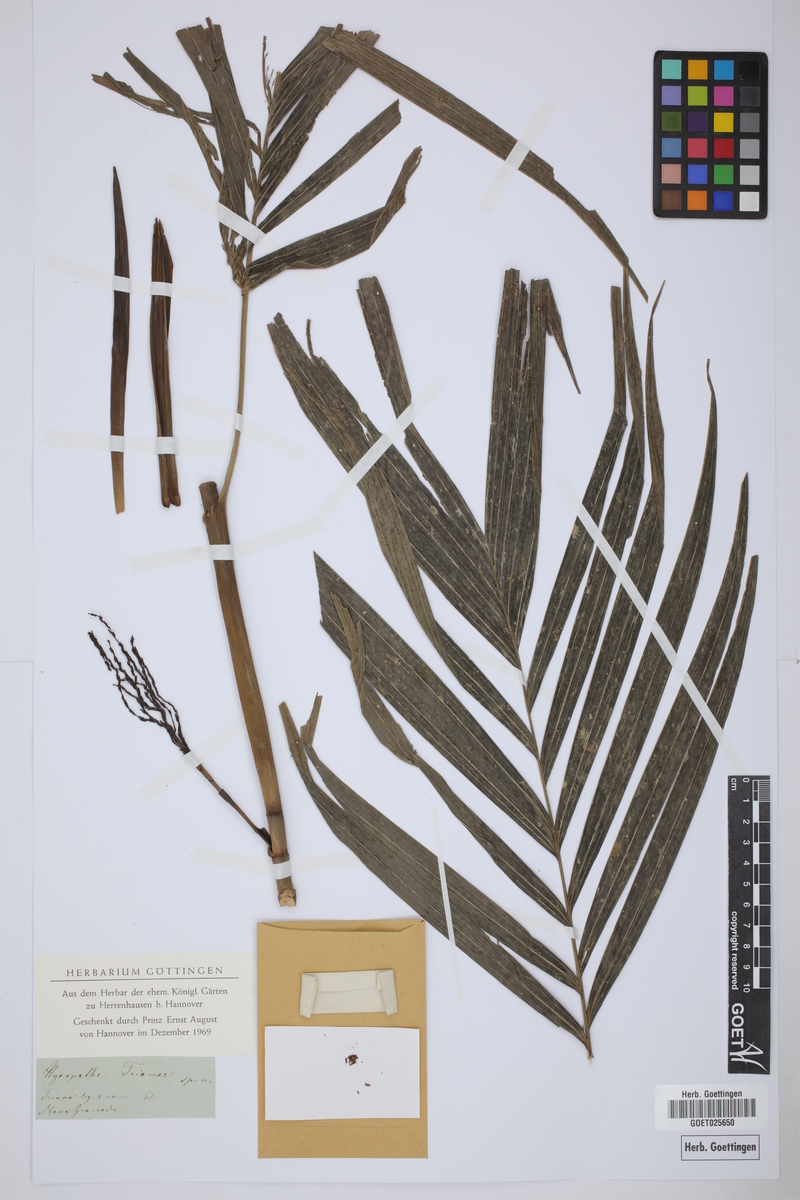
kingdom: Plantae
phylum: Tracheophyta
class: Liliopsida
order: Arecales
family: Arecaceae
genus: Hyospathe
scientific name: Hyospathe
